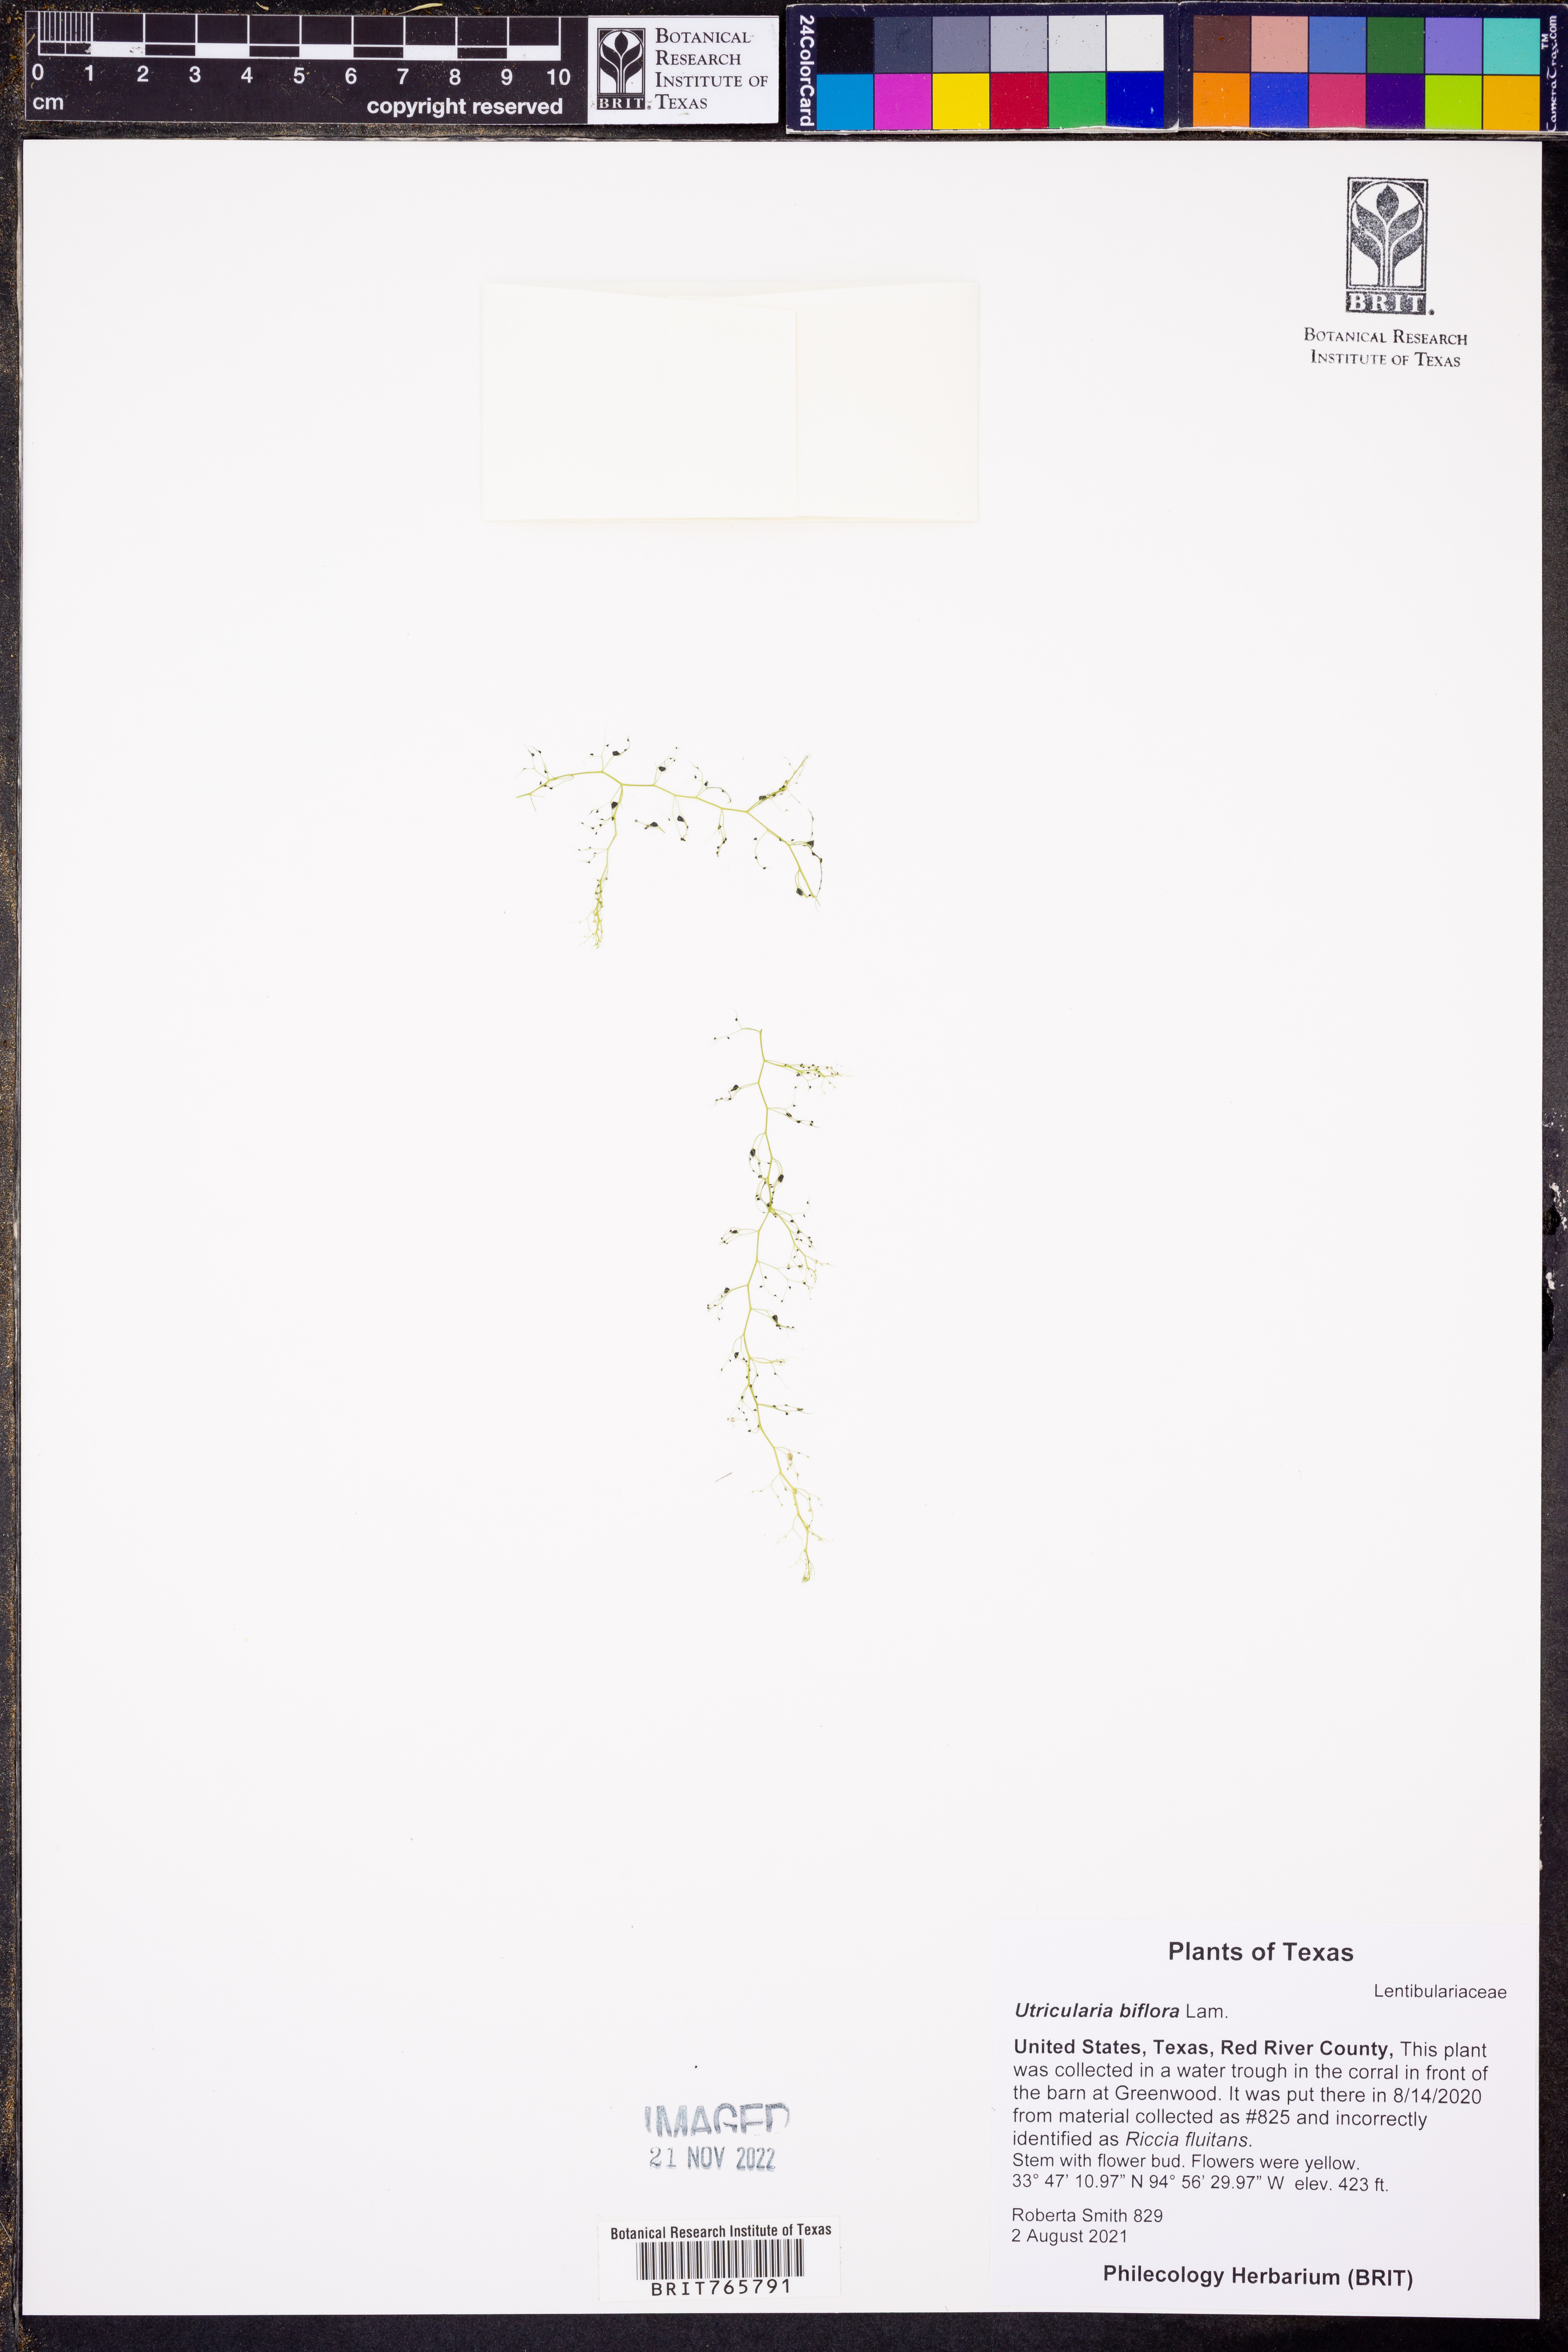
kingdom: Plantae
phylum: Tracheophyta
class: Magnoliopsida
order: Lamiales
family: Lentibulariaceae
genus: Utricularia
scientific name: Utricularia bifida
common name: Bifid bladderwort
